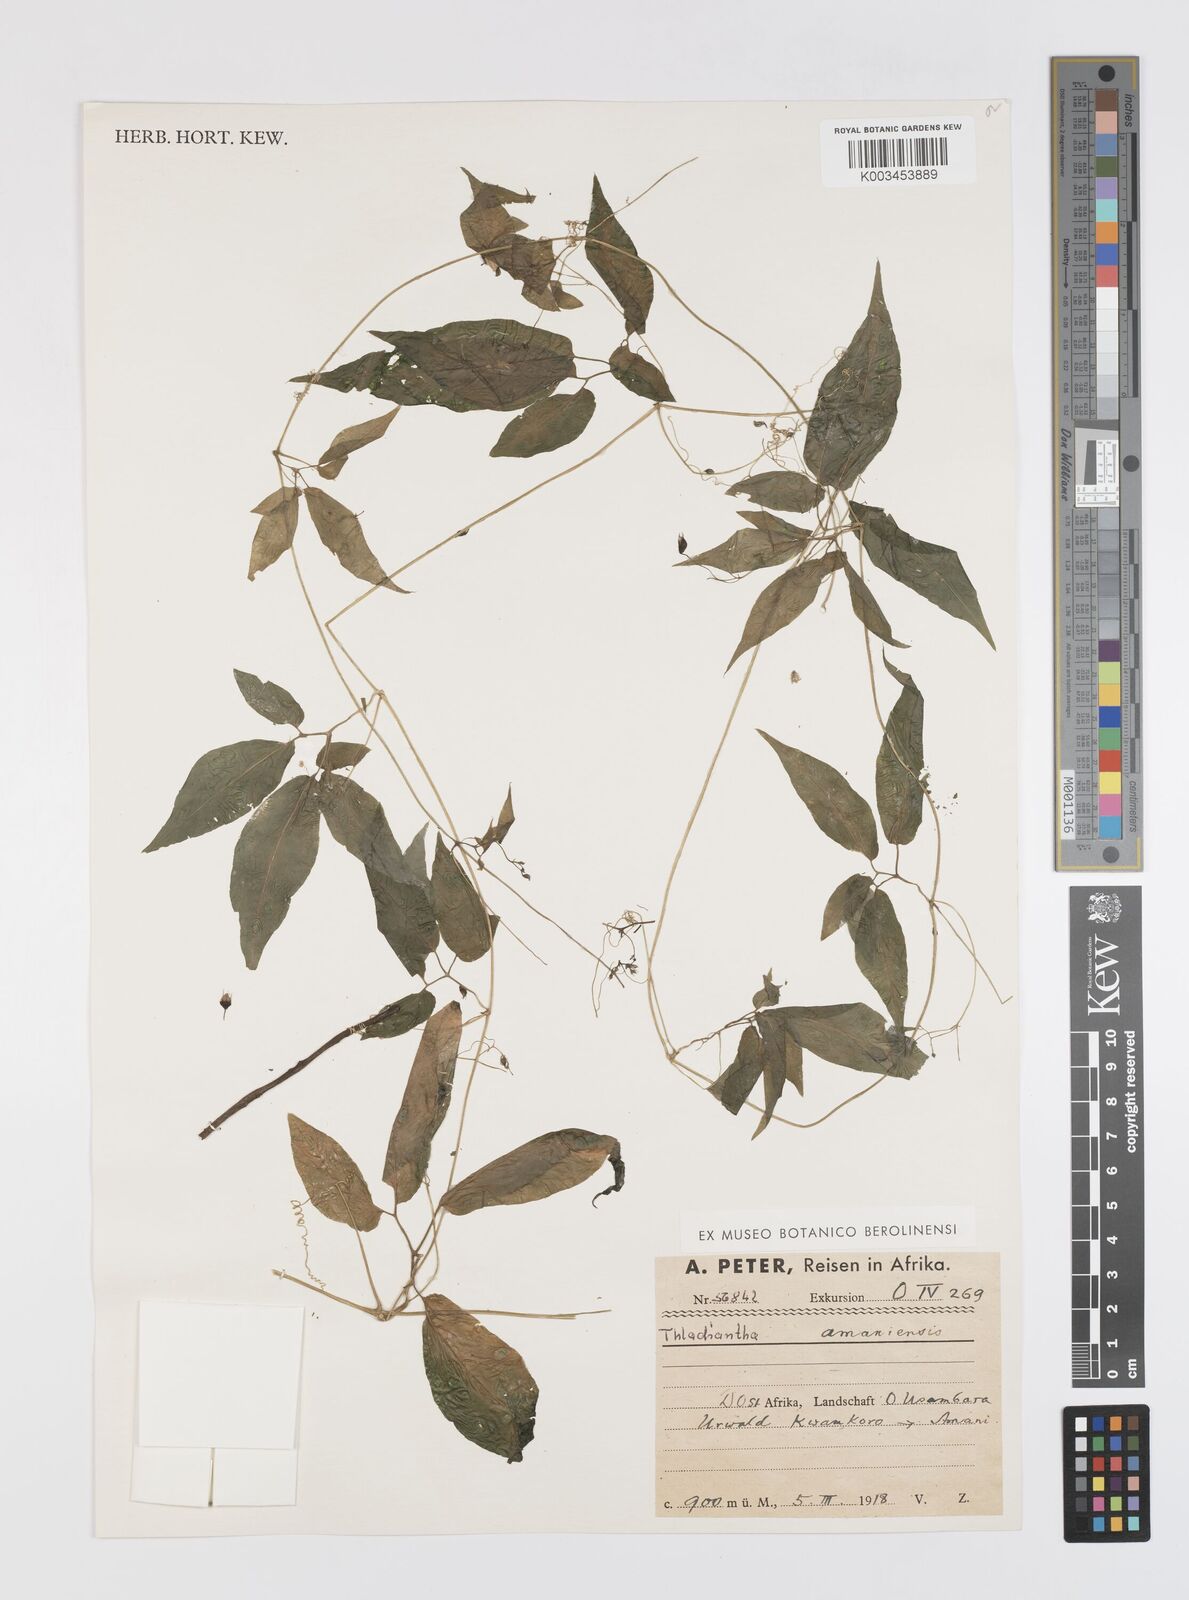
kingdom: Plantae
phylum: Tracheophyta
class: Magnoliopsida
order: Cucurbitales
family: Cucurbitaceae
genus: Momordica
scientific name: Momordica anigosantha
